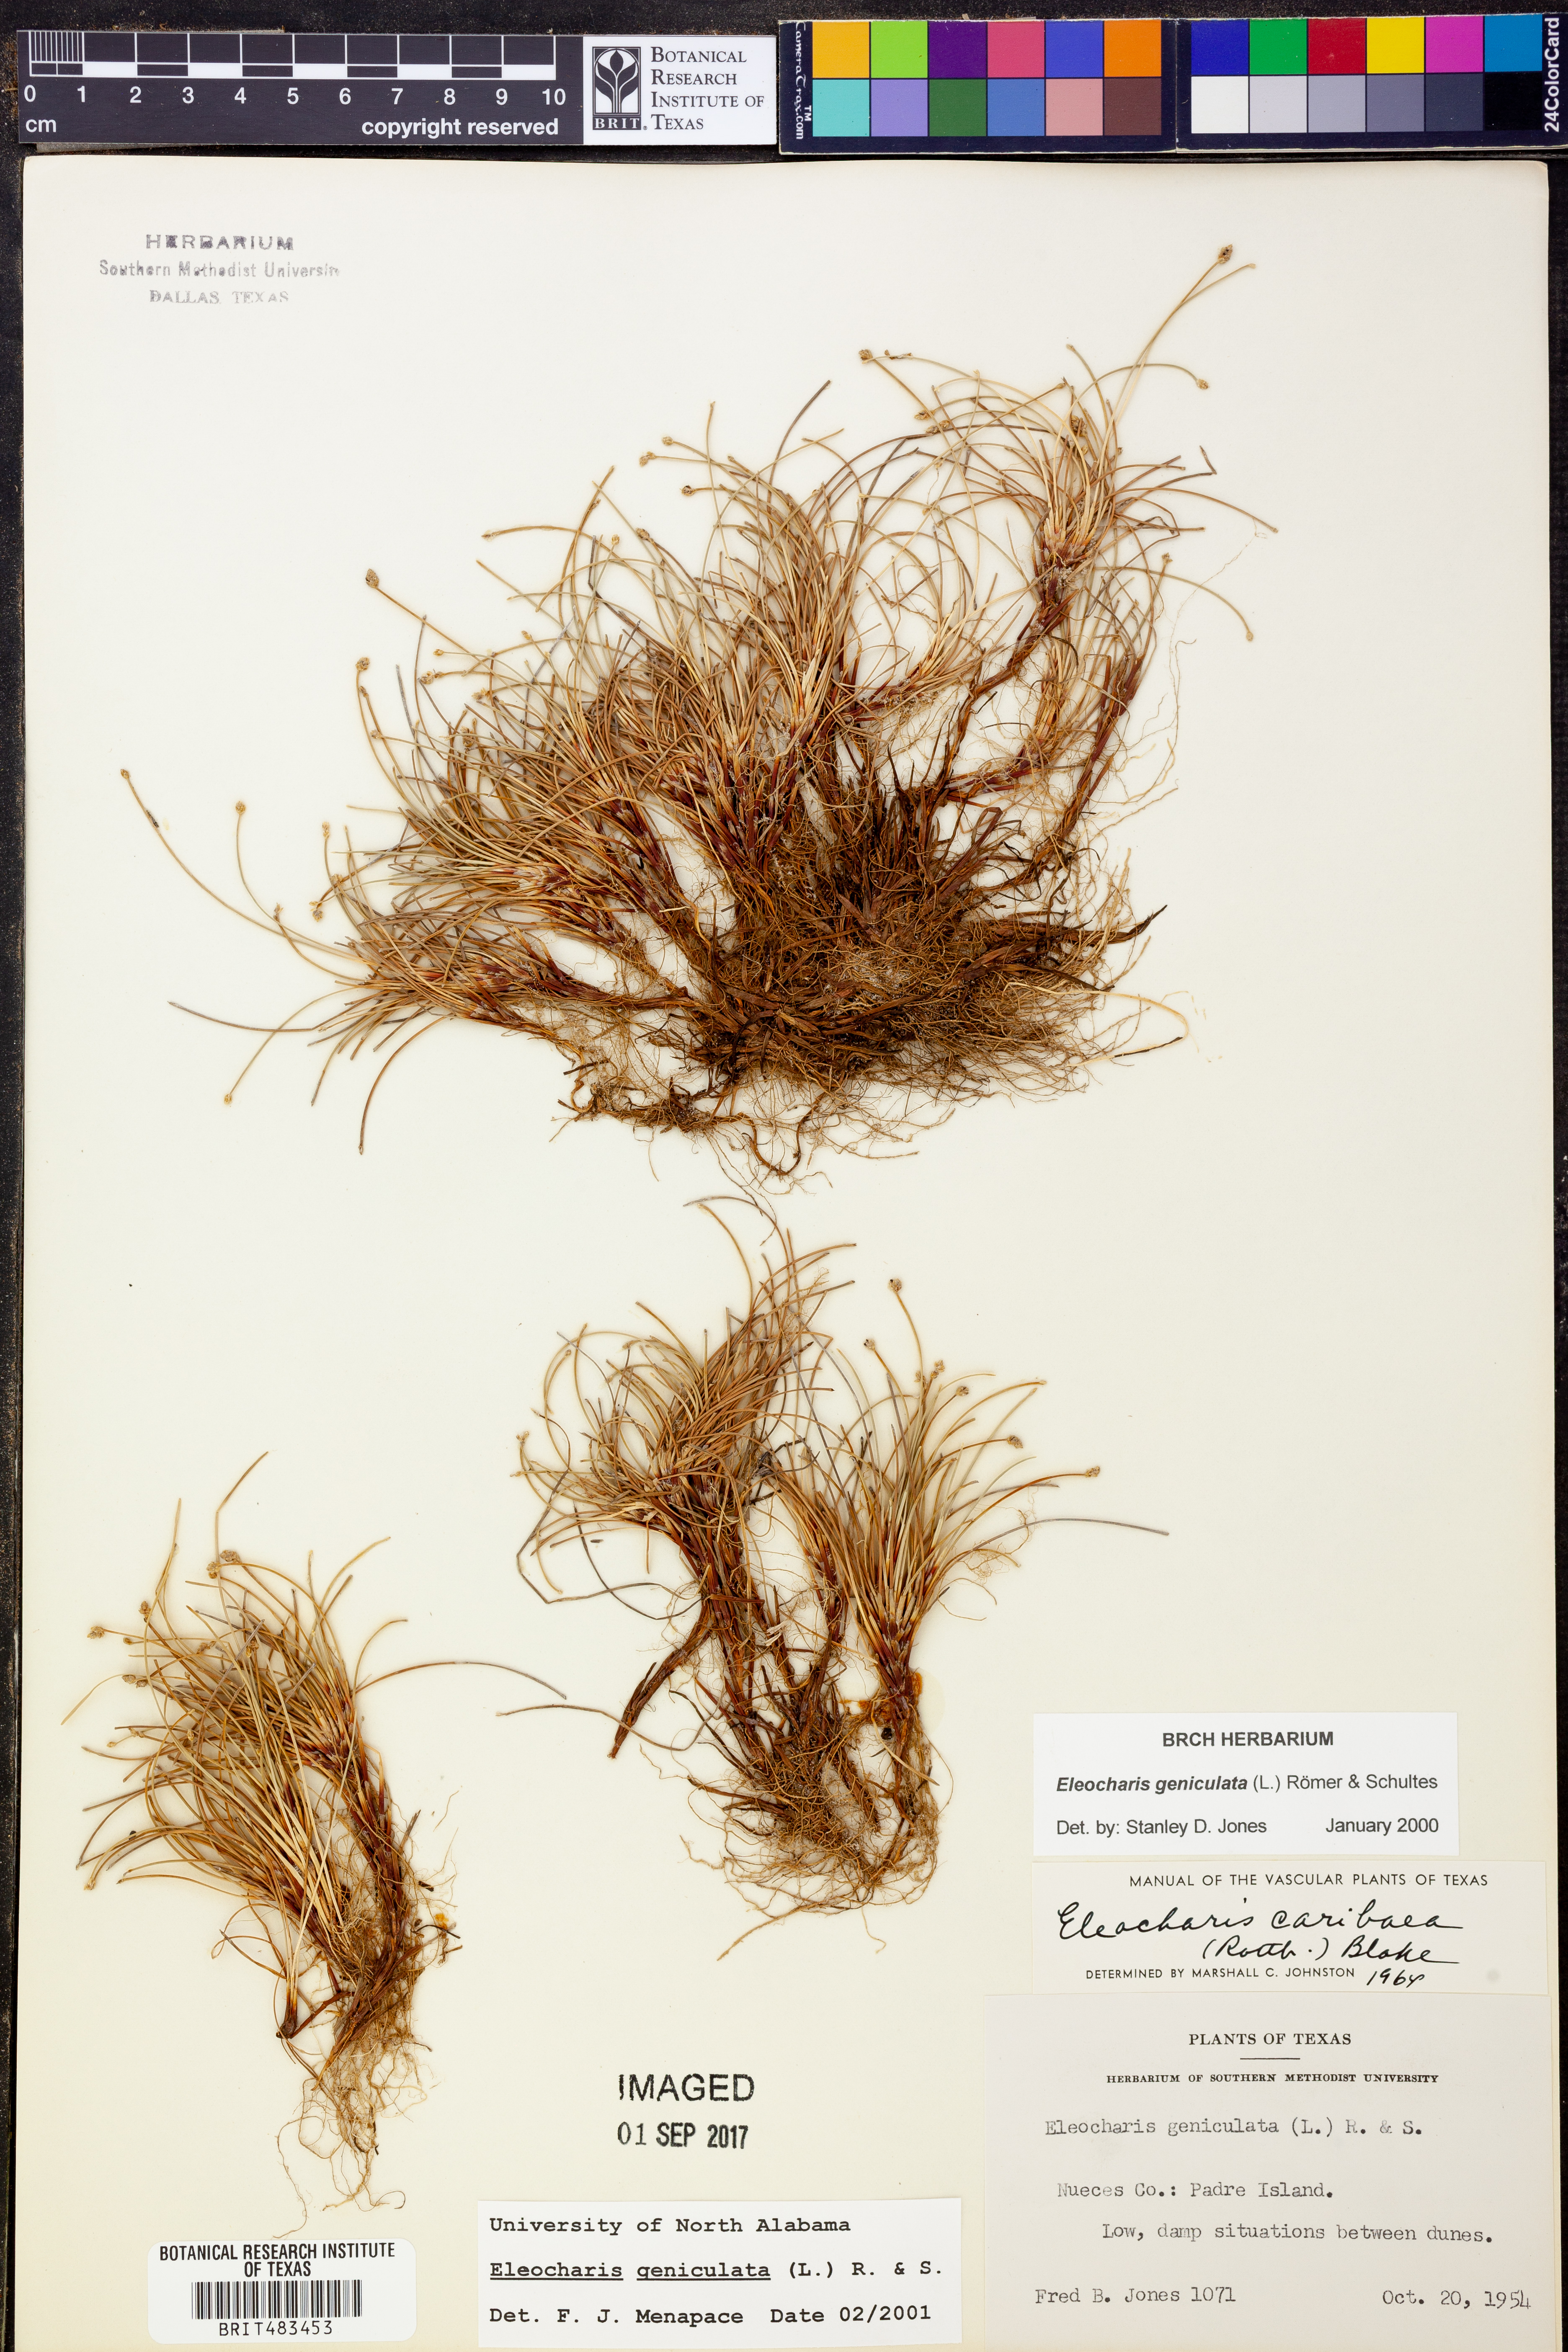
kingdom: Plantae
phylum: Tracheophyta
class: Liliopsida
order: Poales
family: Cyperaceae
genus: Eleocharis
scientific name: Eleocharis geniculata
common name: Canada spikesedge
